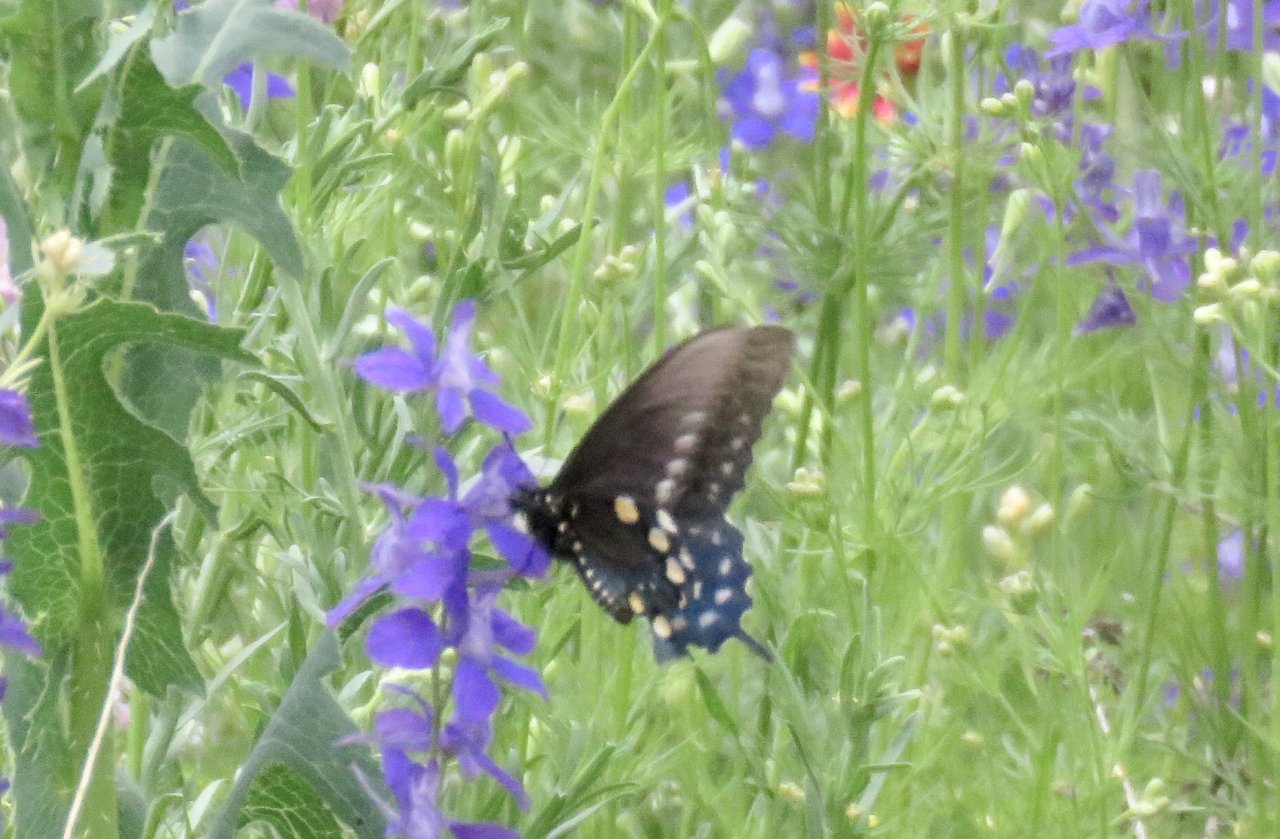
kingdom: Animalia
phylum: Arthropoda
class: Insecta
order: Lepidoptera
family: Papilionidae
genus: Battus
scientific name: Battus philenor
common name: Pipevine Swallowtail
